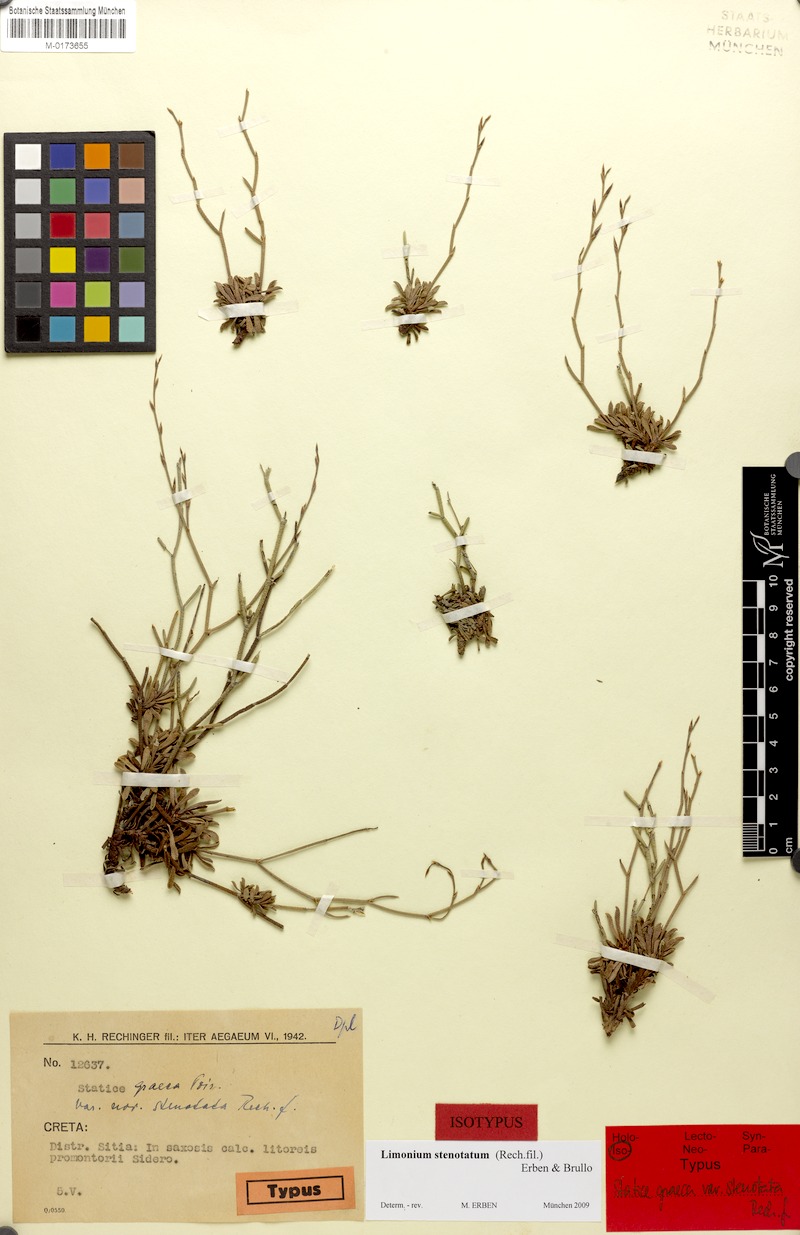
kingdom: Plantae
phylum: Tracheophyta
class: Magnoliopsida
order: Caryophyllales
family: Plumbaginaceae
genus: Limonium
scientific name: Limonium stenotatum
